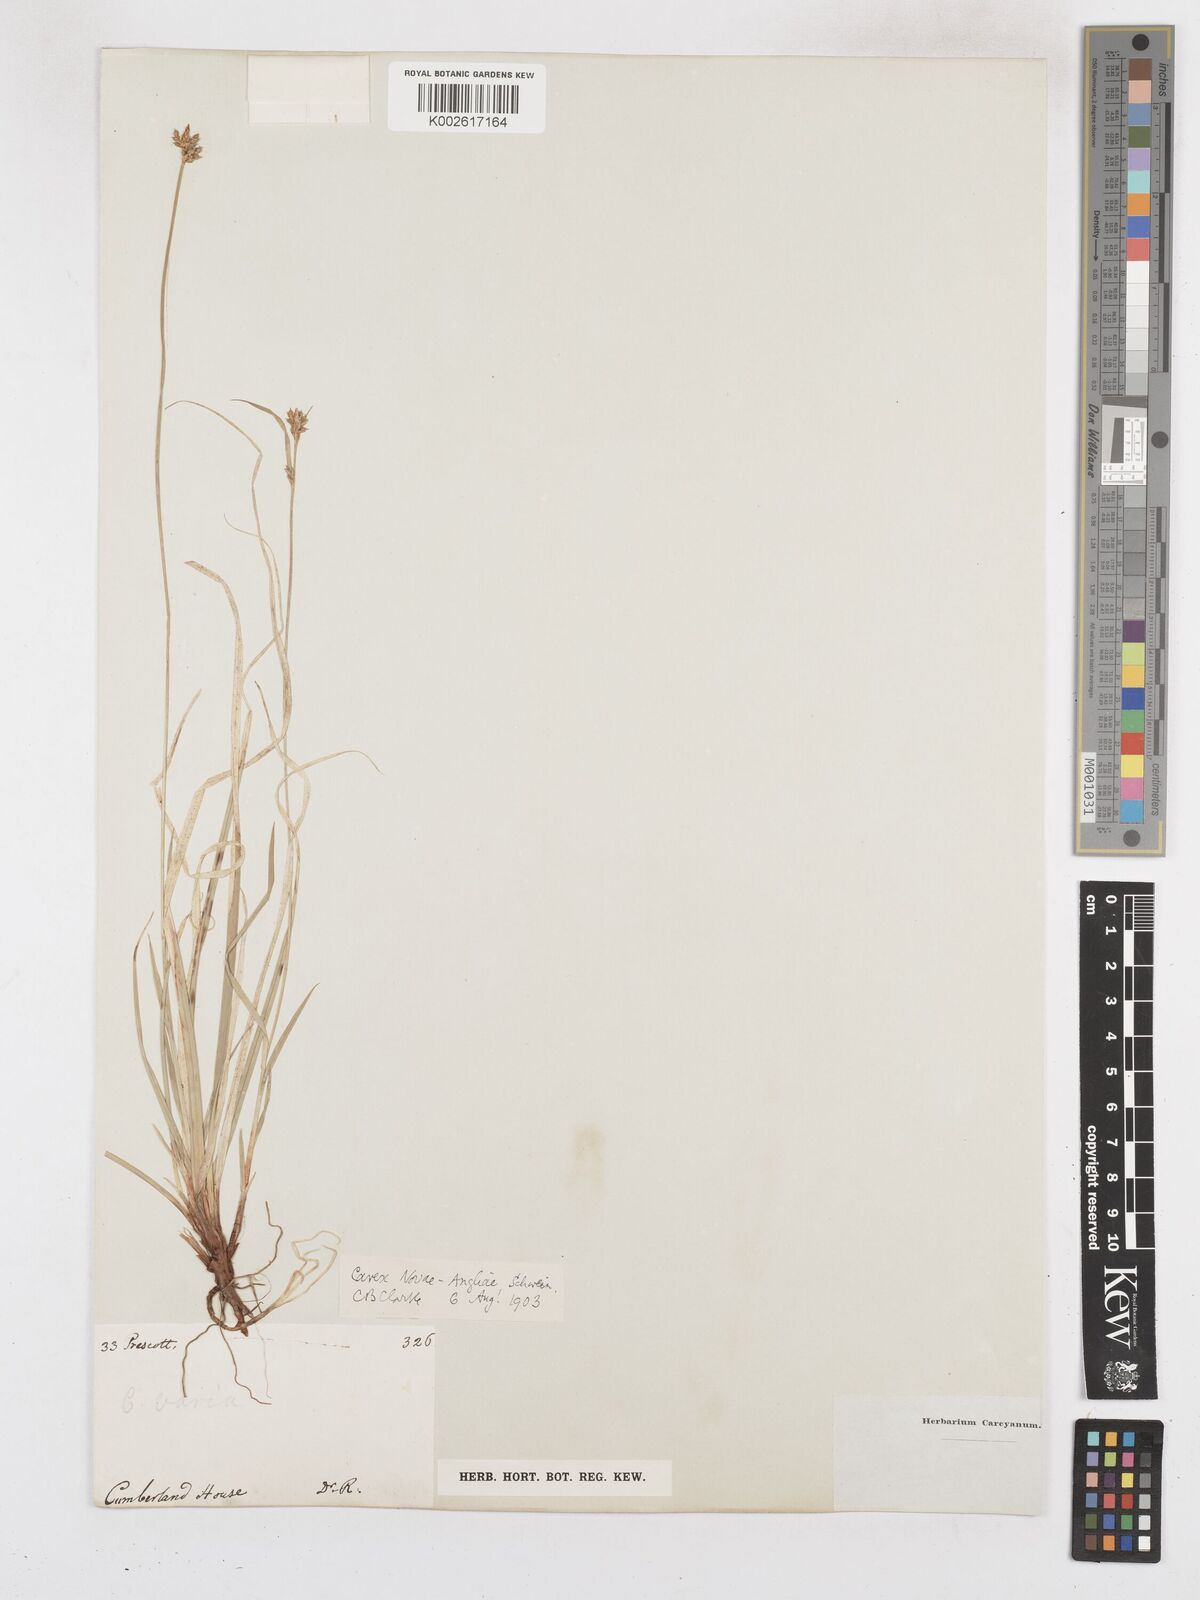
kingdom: Plantae
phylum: Tracheophyta
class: Liliopsida
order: Poales
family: Cyperaceae
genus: Carex
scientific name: Carex novae-angliae
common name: New england sedge
